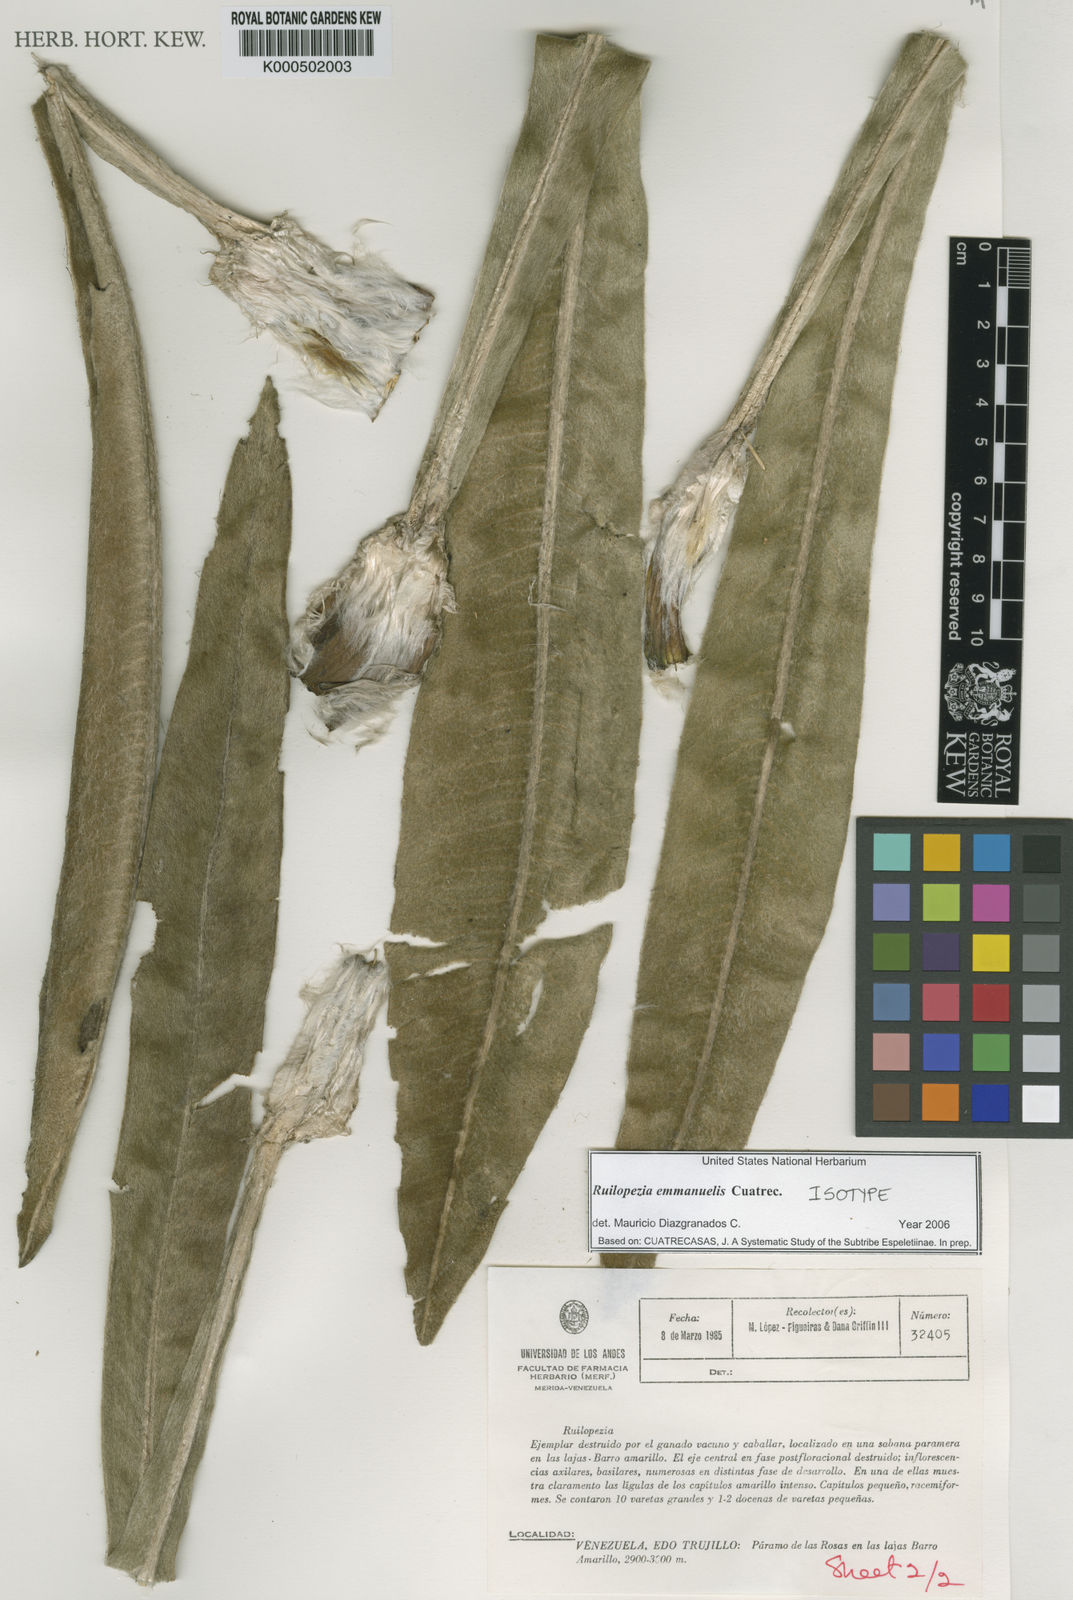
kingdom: Plantae
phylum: Tracheophyta
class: Magnoliopsida
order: Asterales
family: Asteraceae
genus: Espeletia
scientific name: Espeletia emmanuelis
